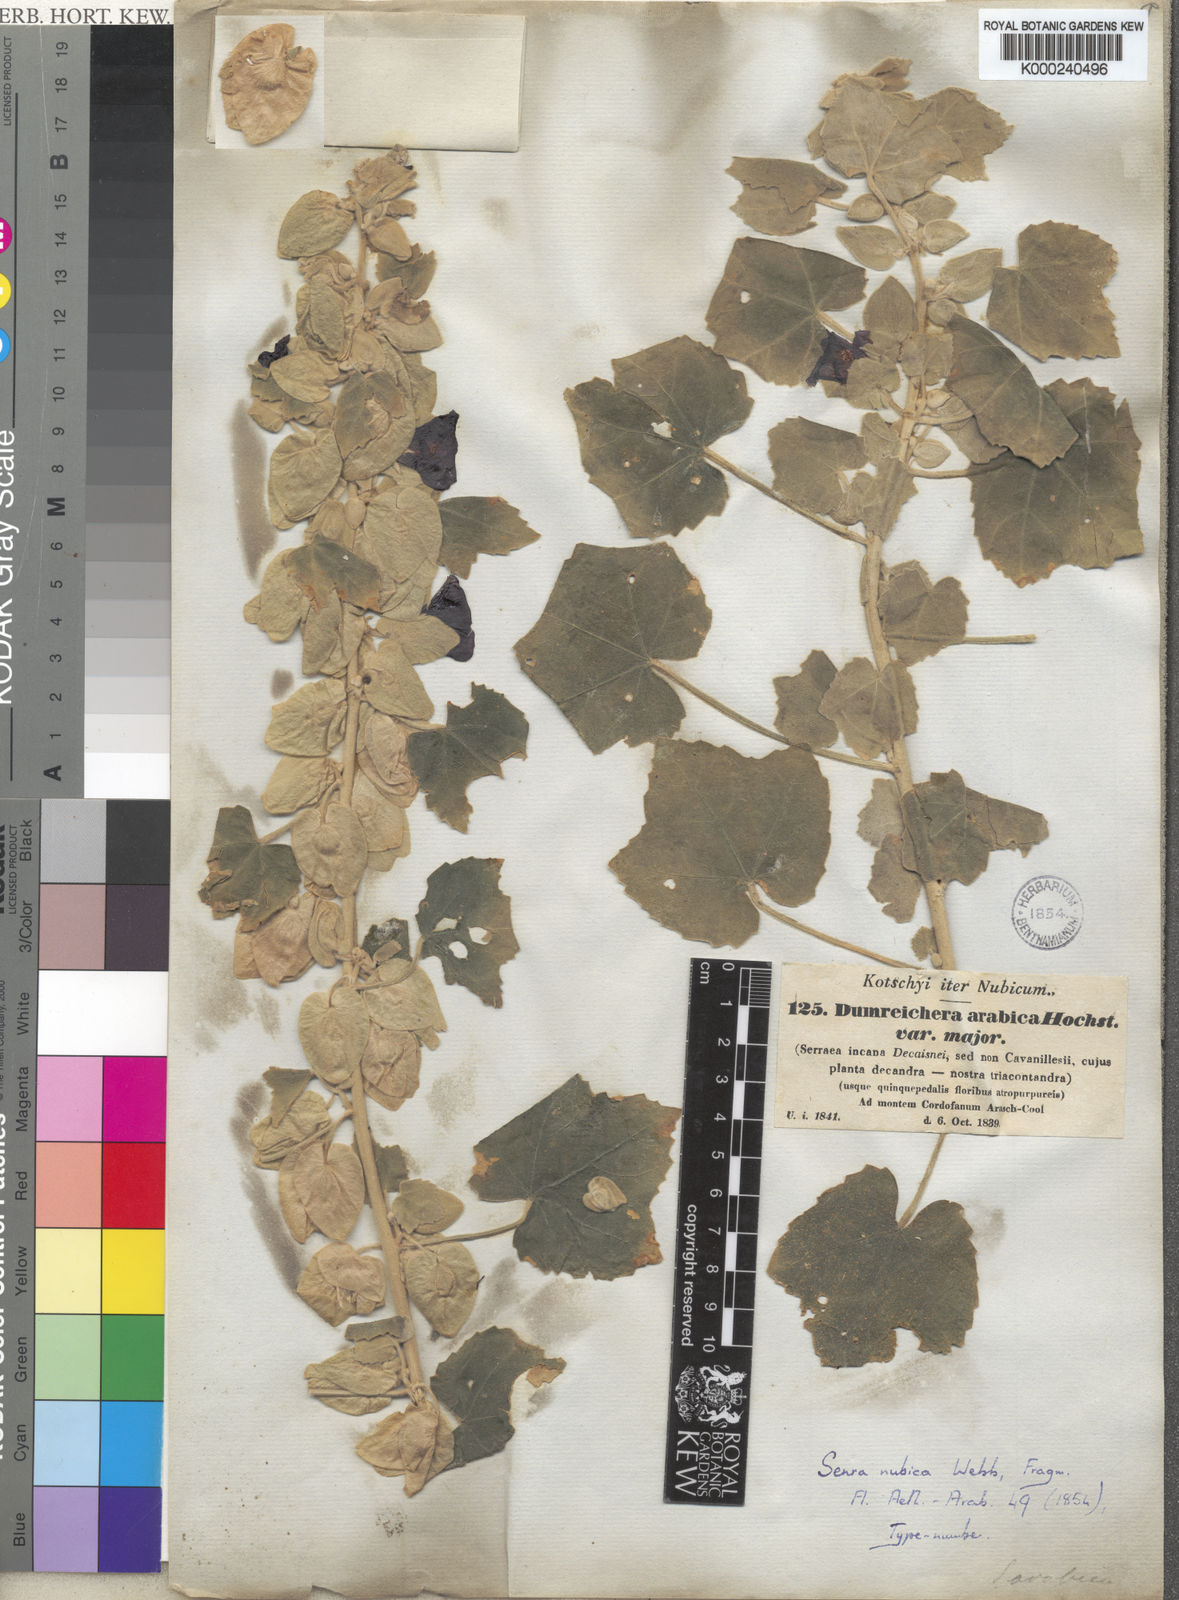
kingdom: Plantae
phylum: Tracheophyta
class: Magnoliopsida
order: Malvales
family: Malvaceae
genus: Senra
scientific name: Senra
